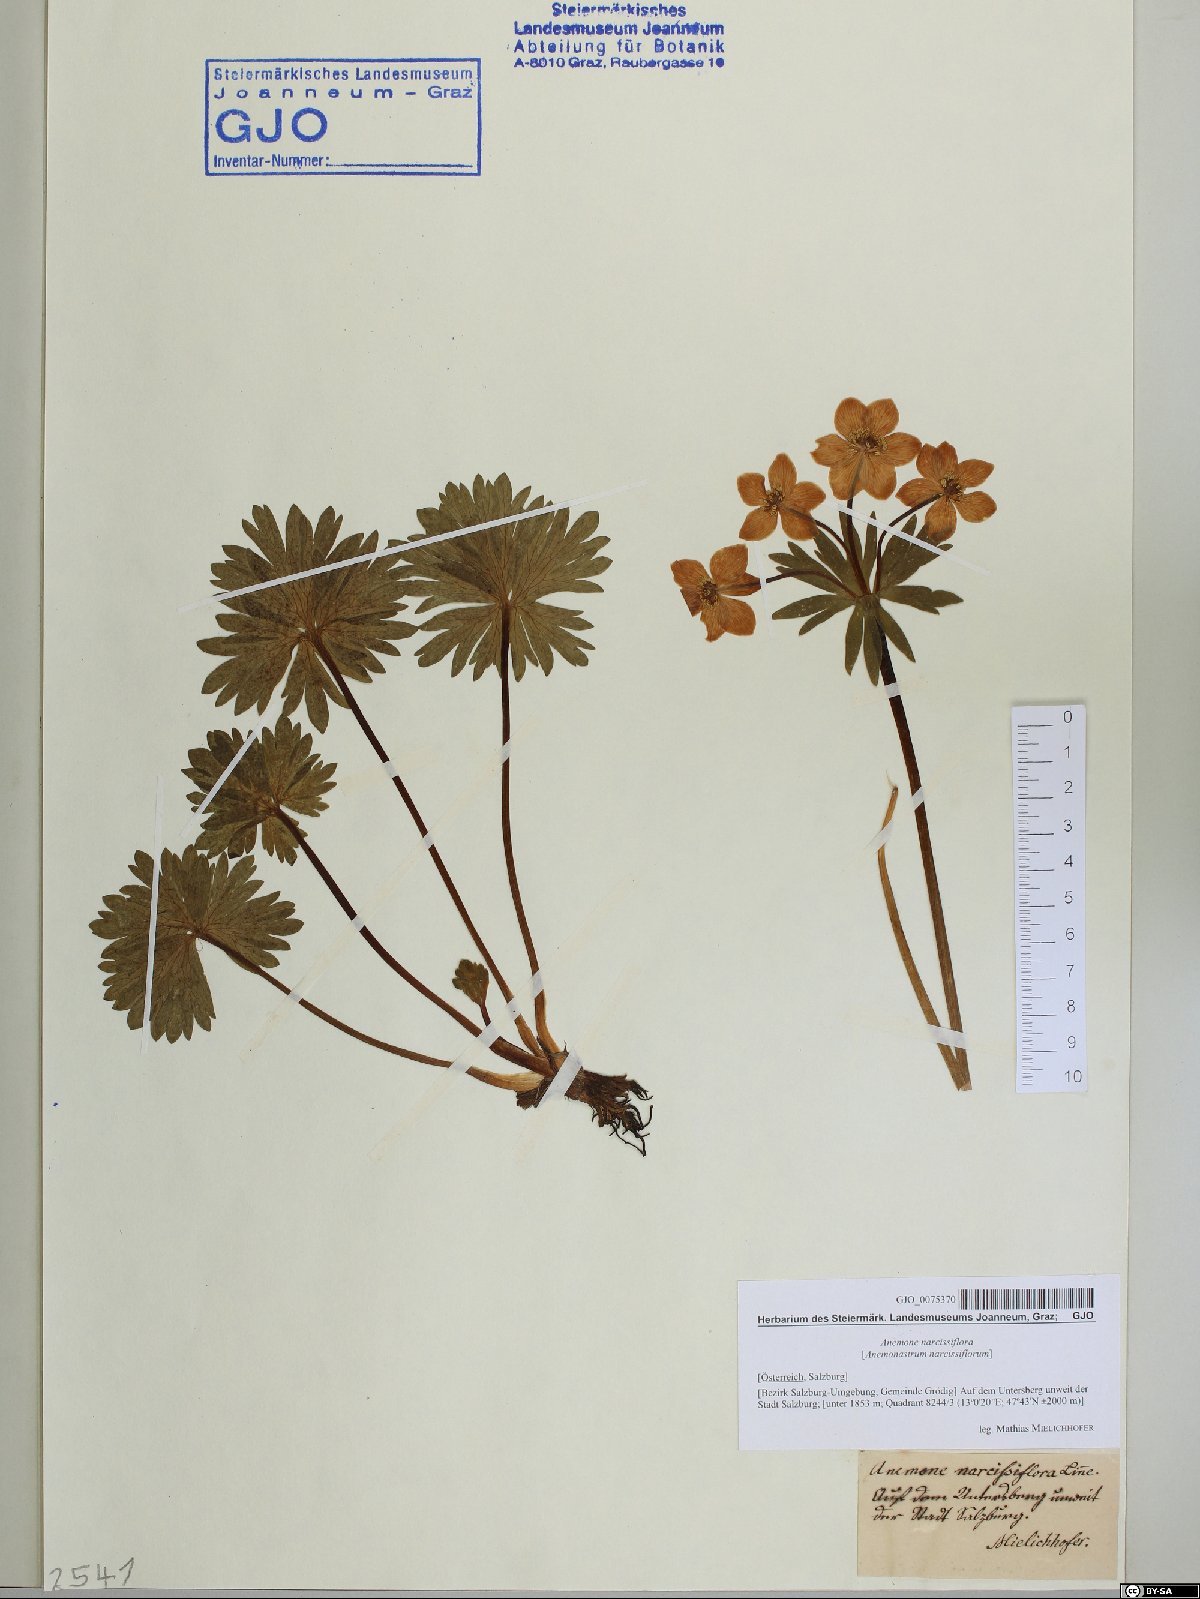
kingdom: Plantae
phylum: Tracheophyta
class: Magnoliopsida
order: Ranunculales
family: Ranunculaceae
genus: Anemonastrum
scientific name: Anemonastrum narcissiflorum
